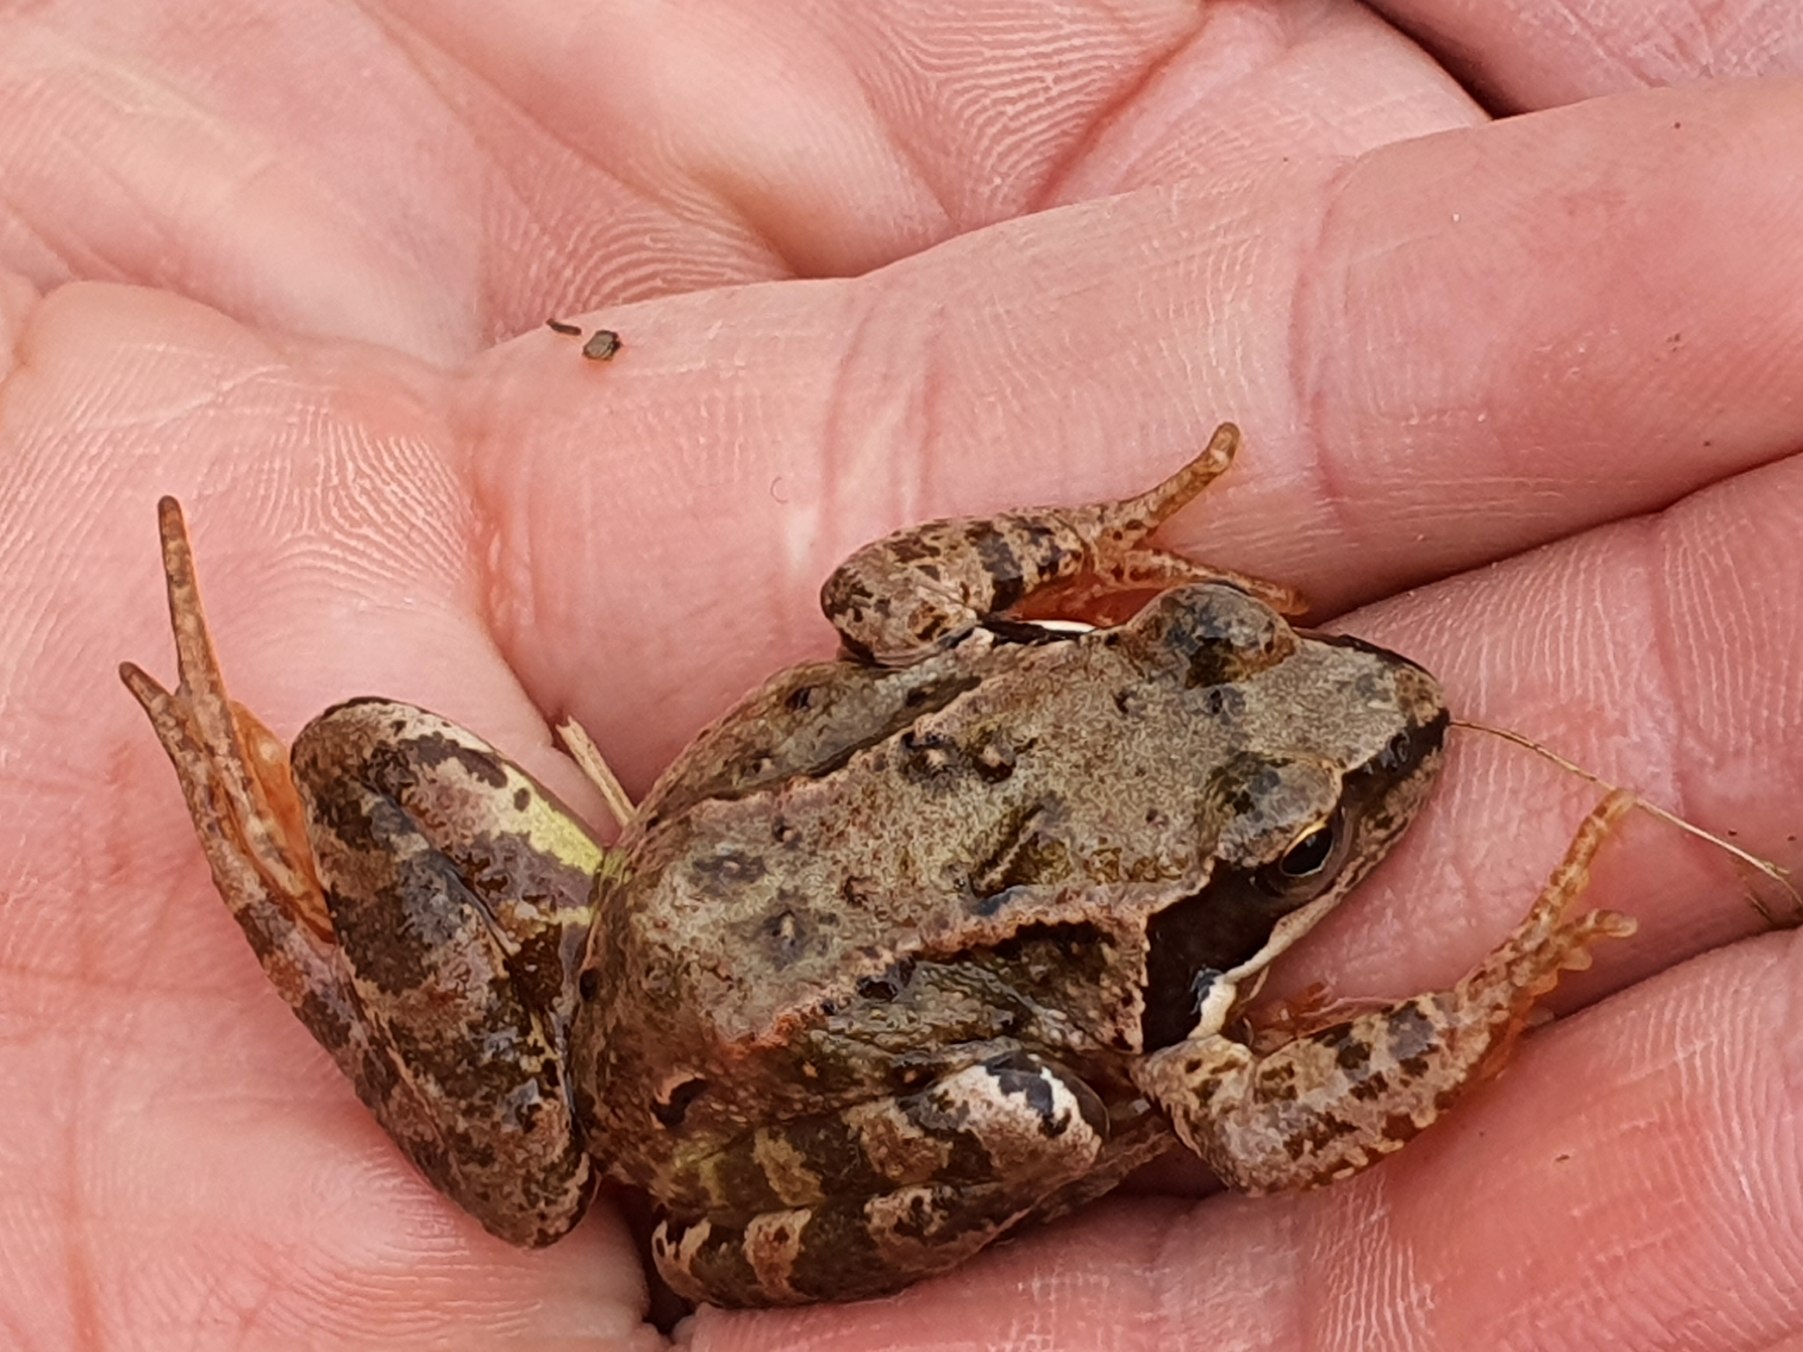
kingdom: Animalia
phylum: Chordata
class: Amphibia
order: Anura
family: Ranidae
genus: Rana
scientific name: Rana temporaria
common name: Butsnudet frø
